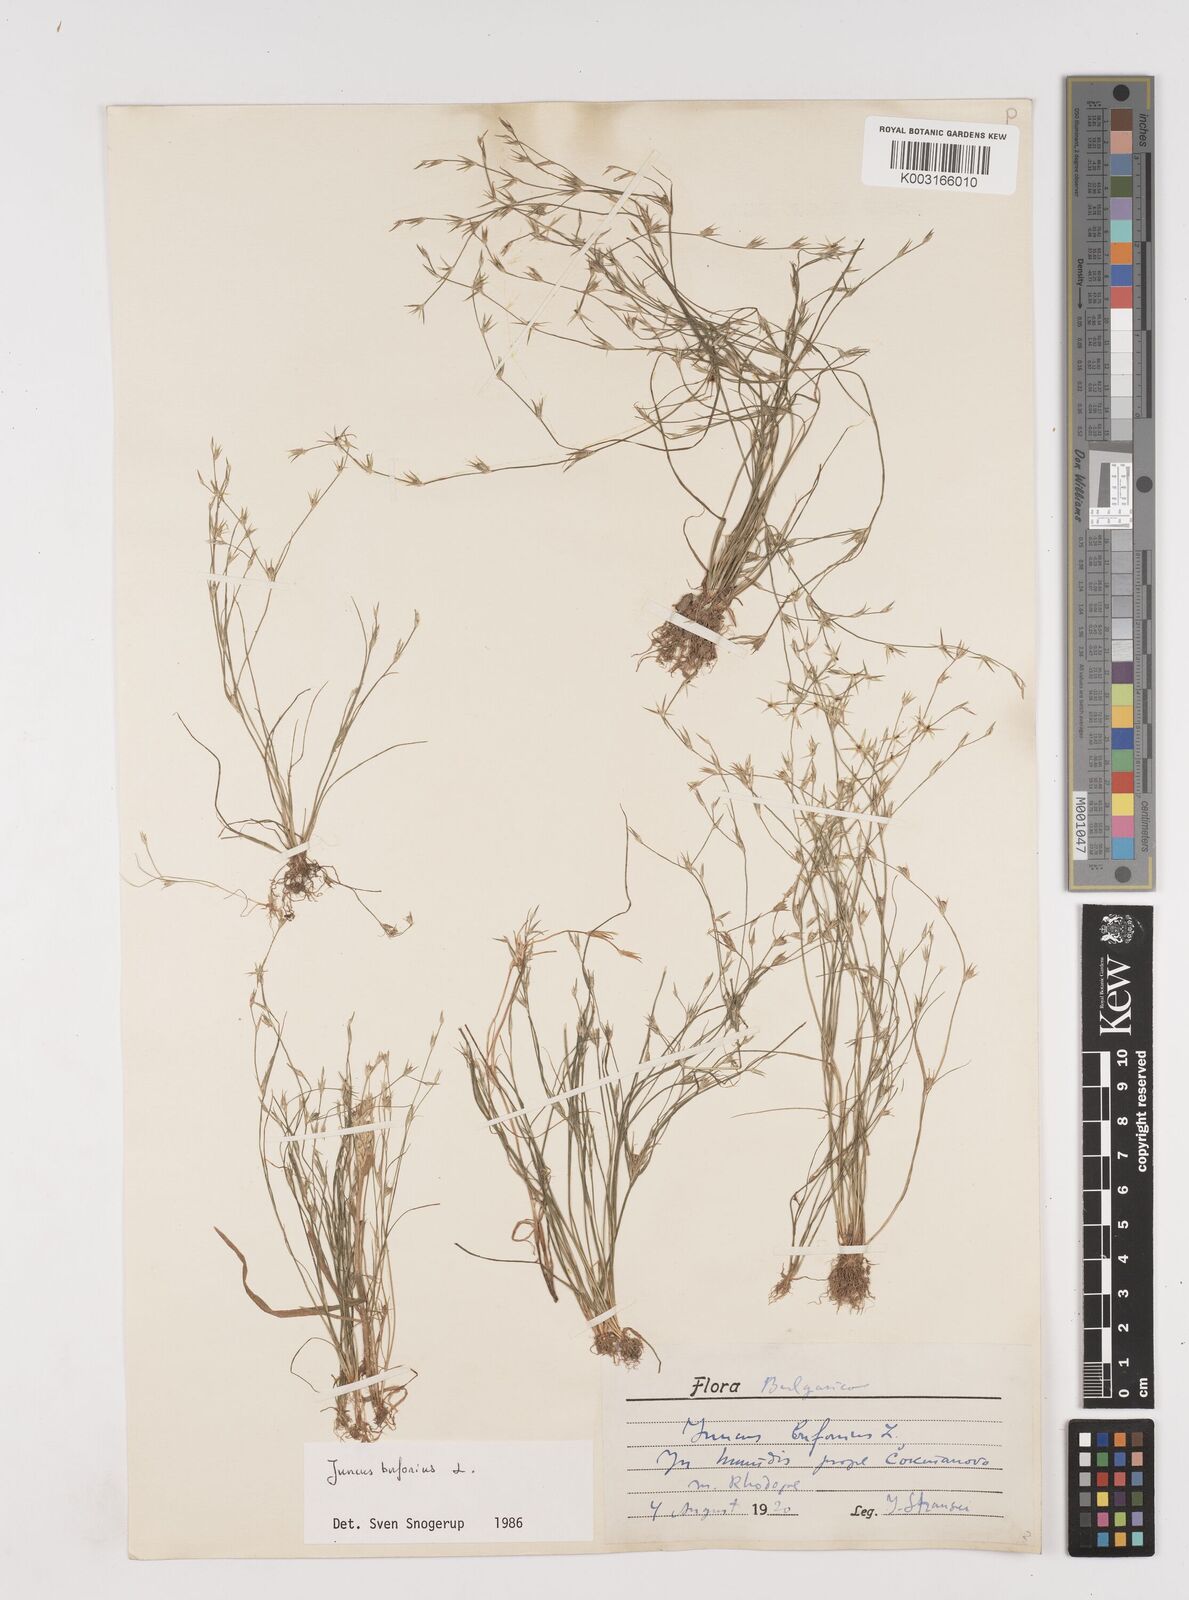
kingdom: Plantae
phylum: Tracheophyta
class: Liliopsida
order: Poales
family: Juncaceae
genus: Juncus
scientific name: Juncus bufonius
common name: Toad rush
